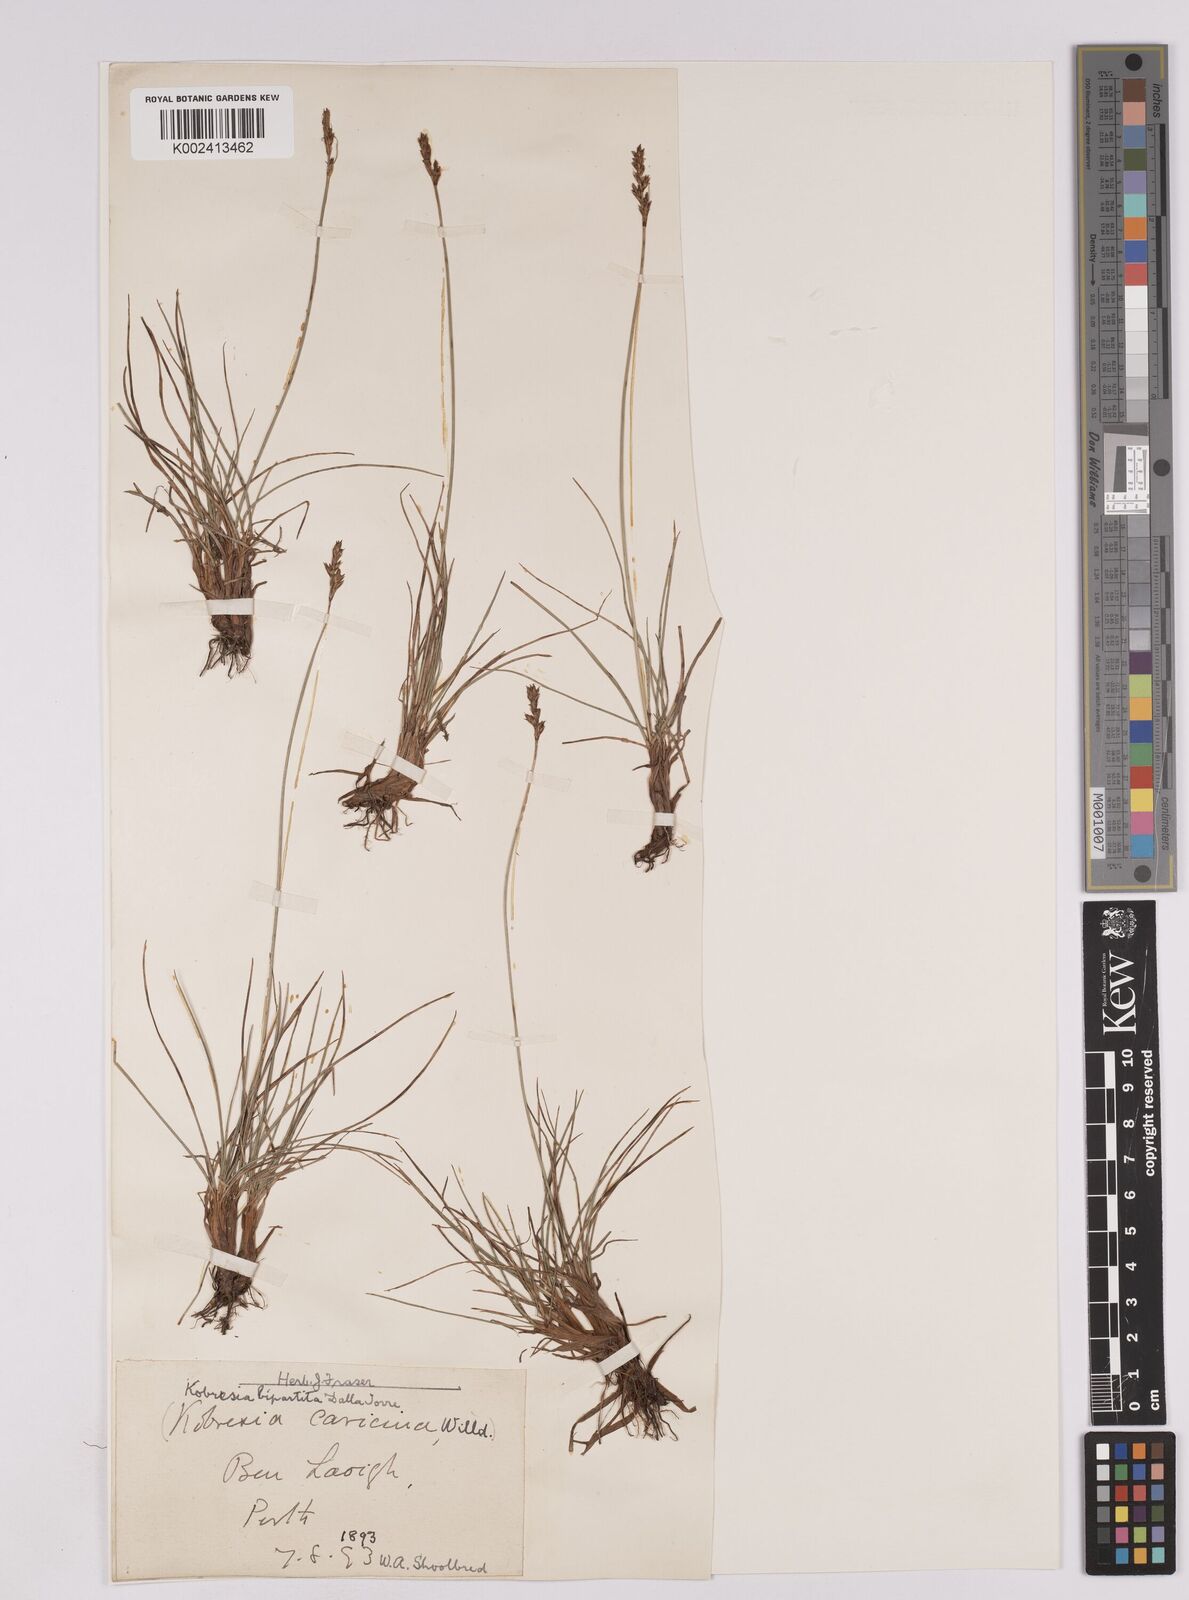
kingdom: Plantae
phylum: Tracheophyta
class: Liliopsida
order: Poales
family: Cyperaceae
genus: Carex
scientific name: Carex simpliciuscula
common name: Simple bog sedge
